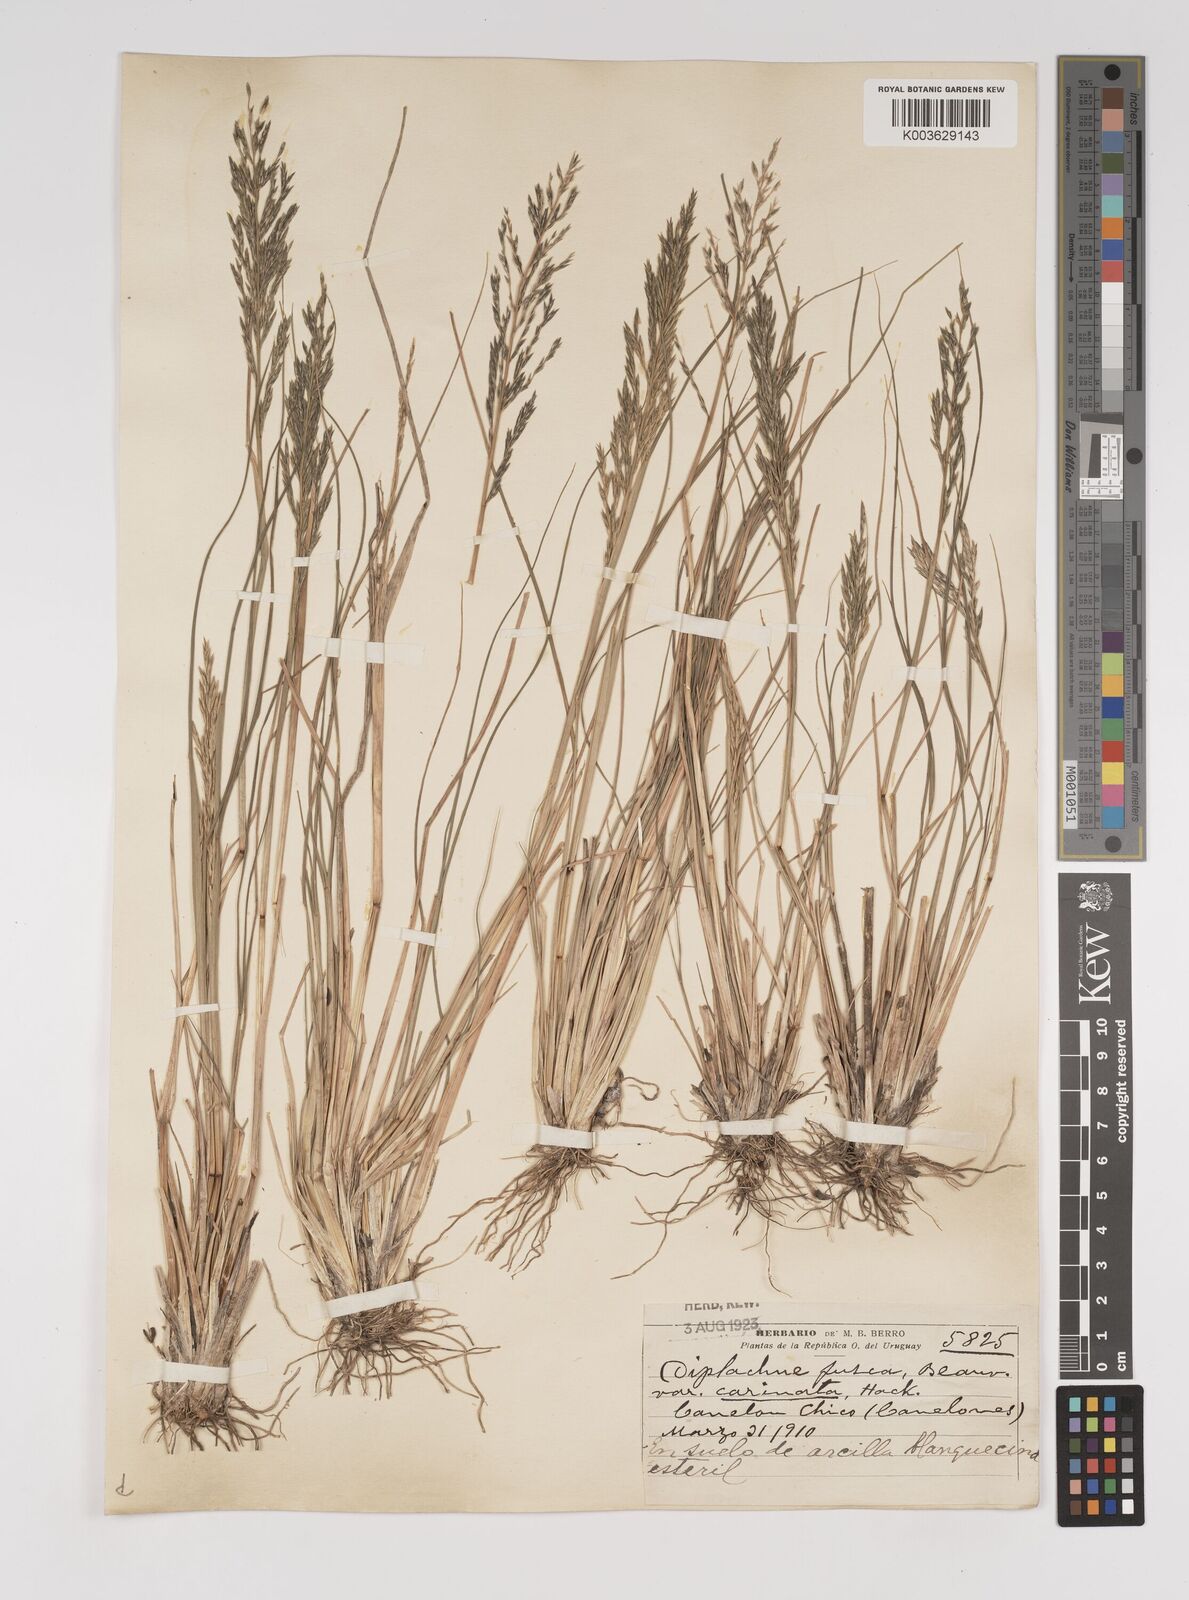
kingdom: Plantae
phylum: Tracheophyta
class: Liliopsida
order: Poales
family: Poaceae
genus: Diplachne
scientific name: Diplachne fusca
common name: Brown beetle grass
